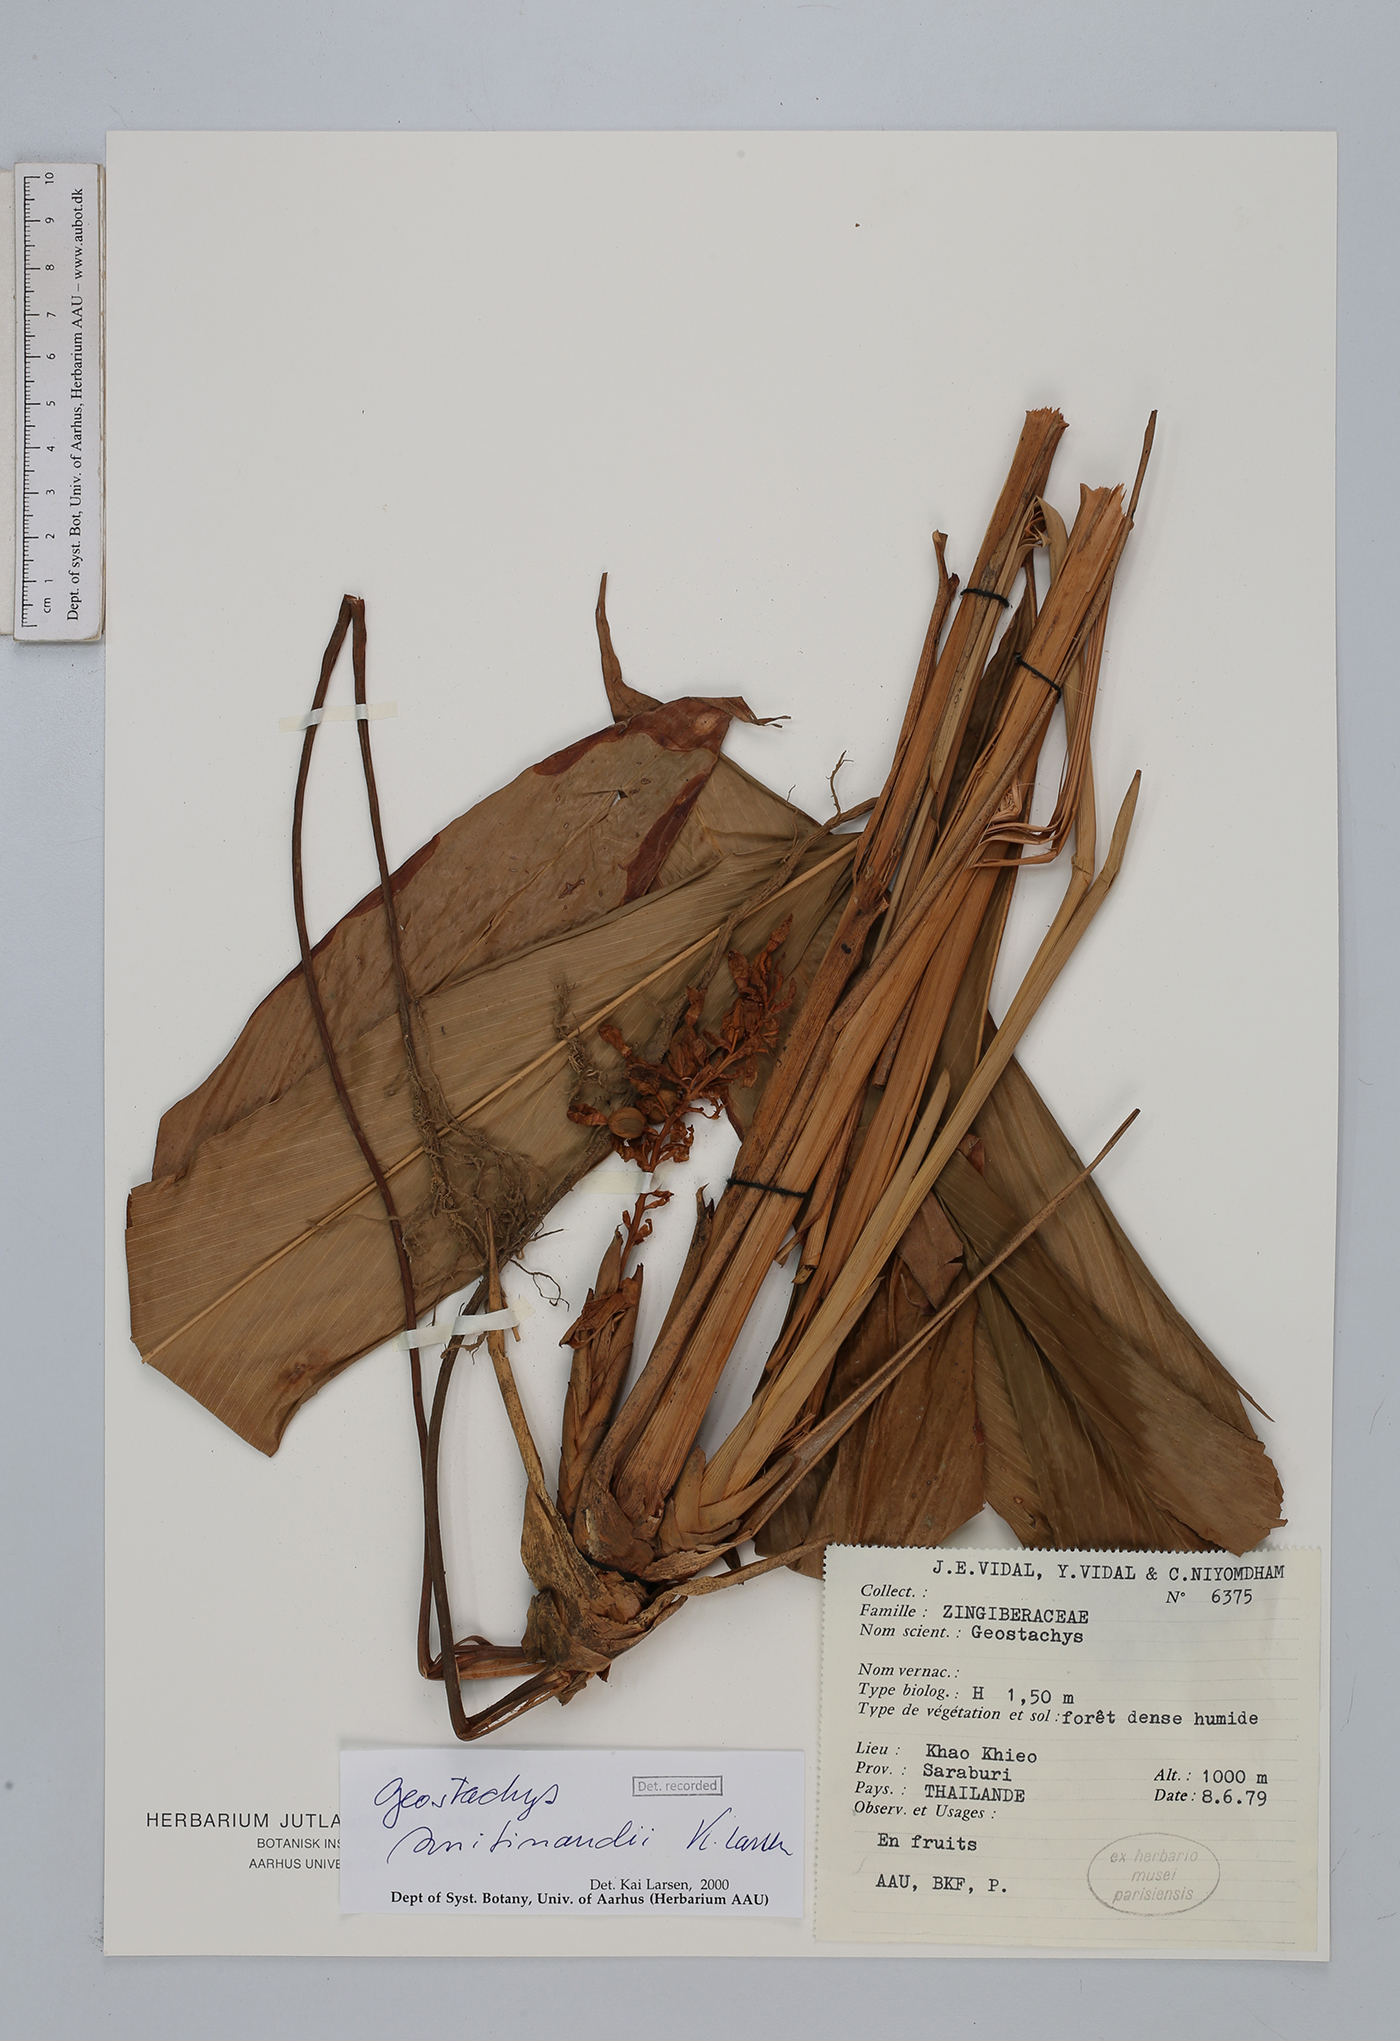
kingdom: Plantae
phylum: Tracheophyta
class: Liliopsida
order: Zingiberales
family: Zingiberaceae
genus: Geostachys
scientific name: Geostachys smitinandii
